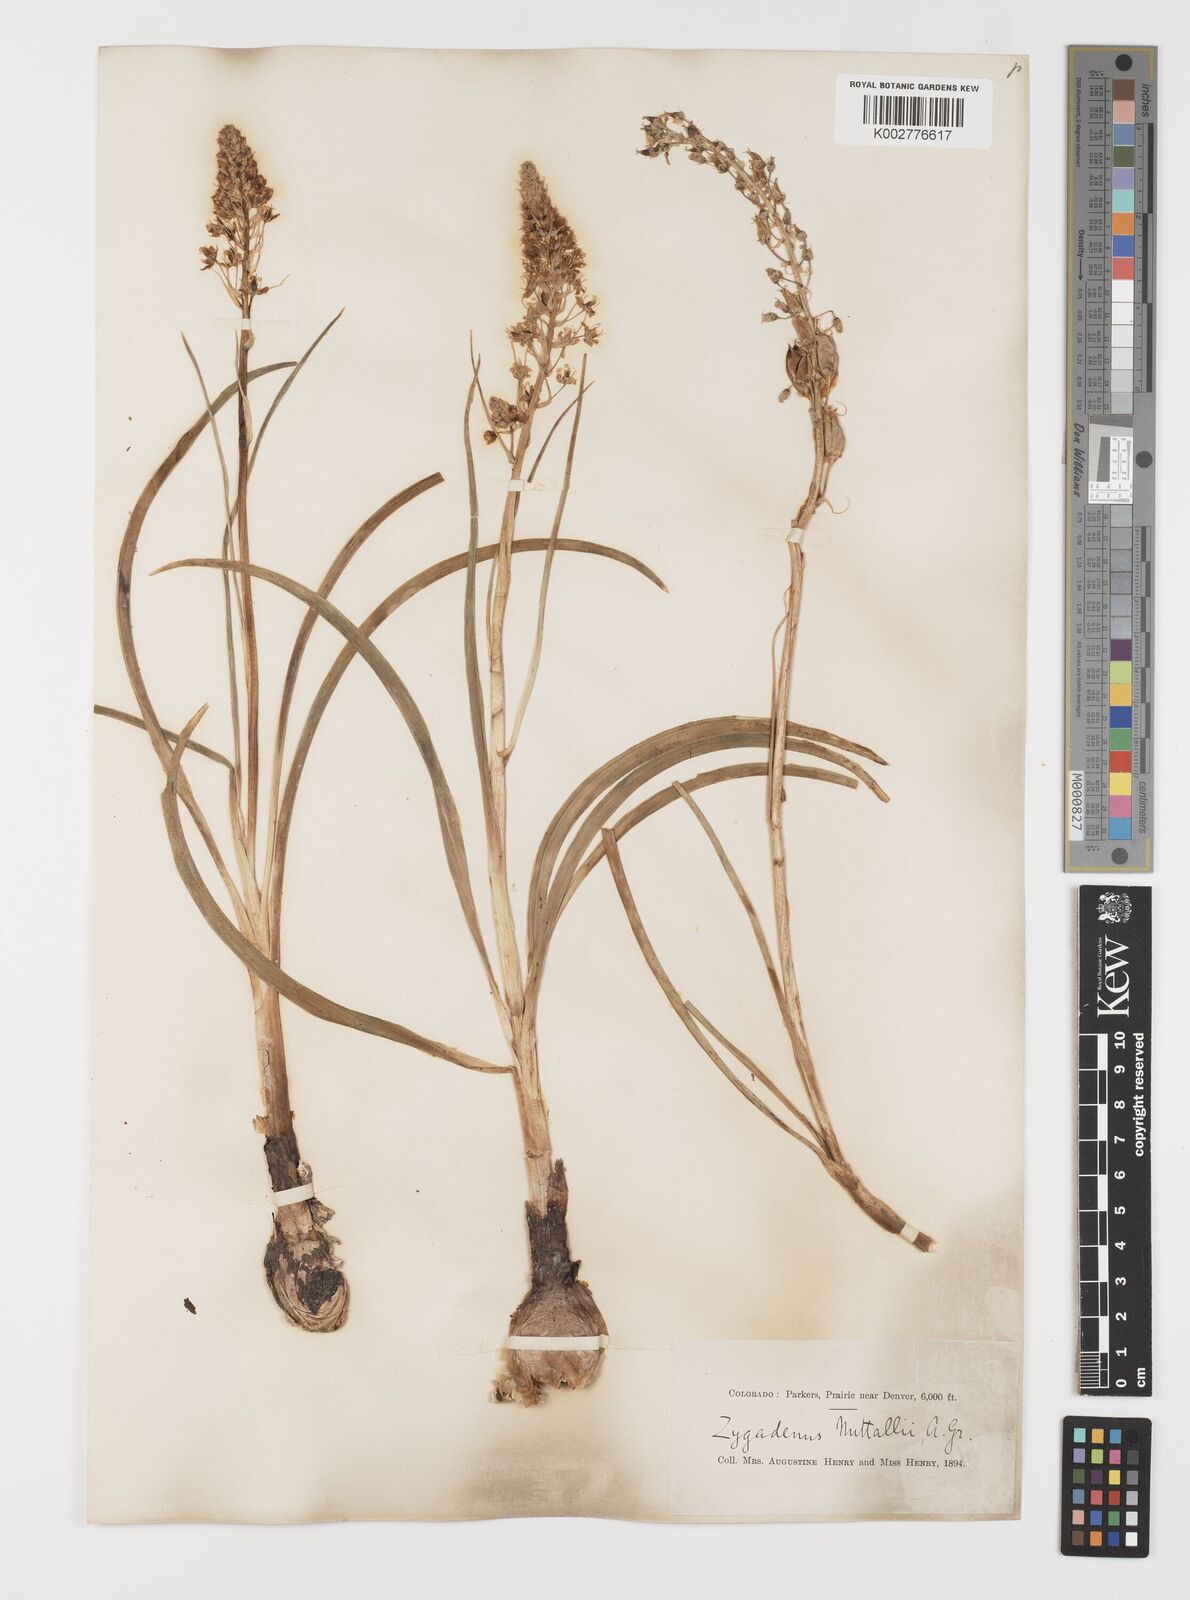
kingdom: Plantae
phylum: Tracheophyta
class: Liliopsida
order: Liliales
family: Melanthiaceae
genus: Toxicoscordion
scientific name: Toxicoscordion venenosum
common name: Meadow death camas
